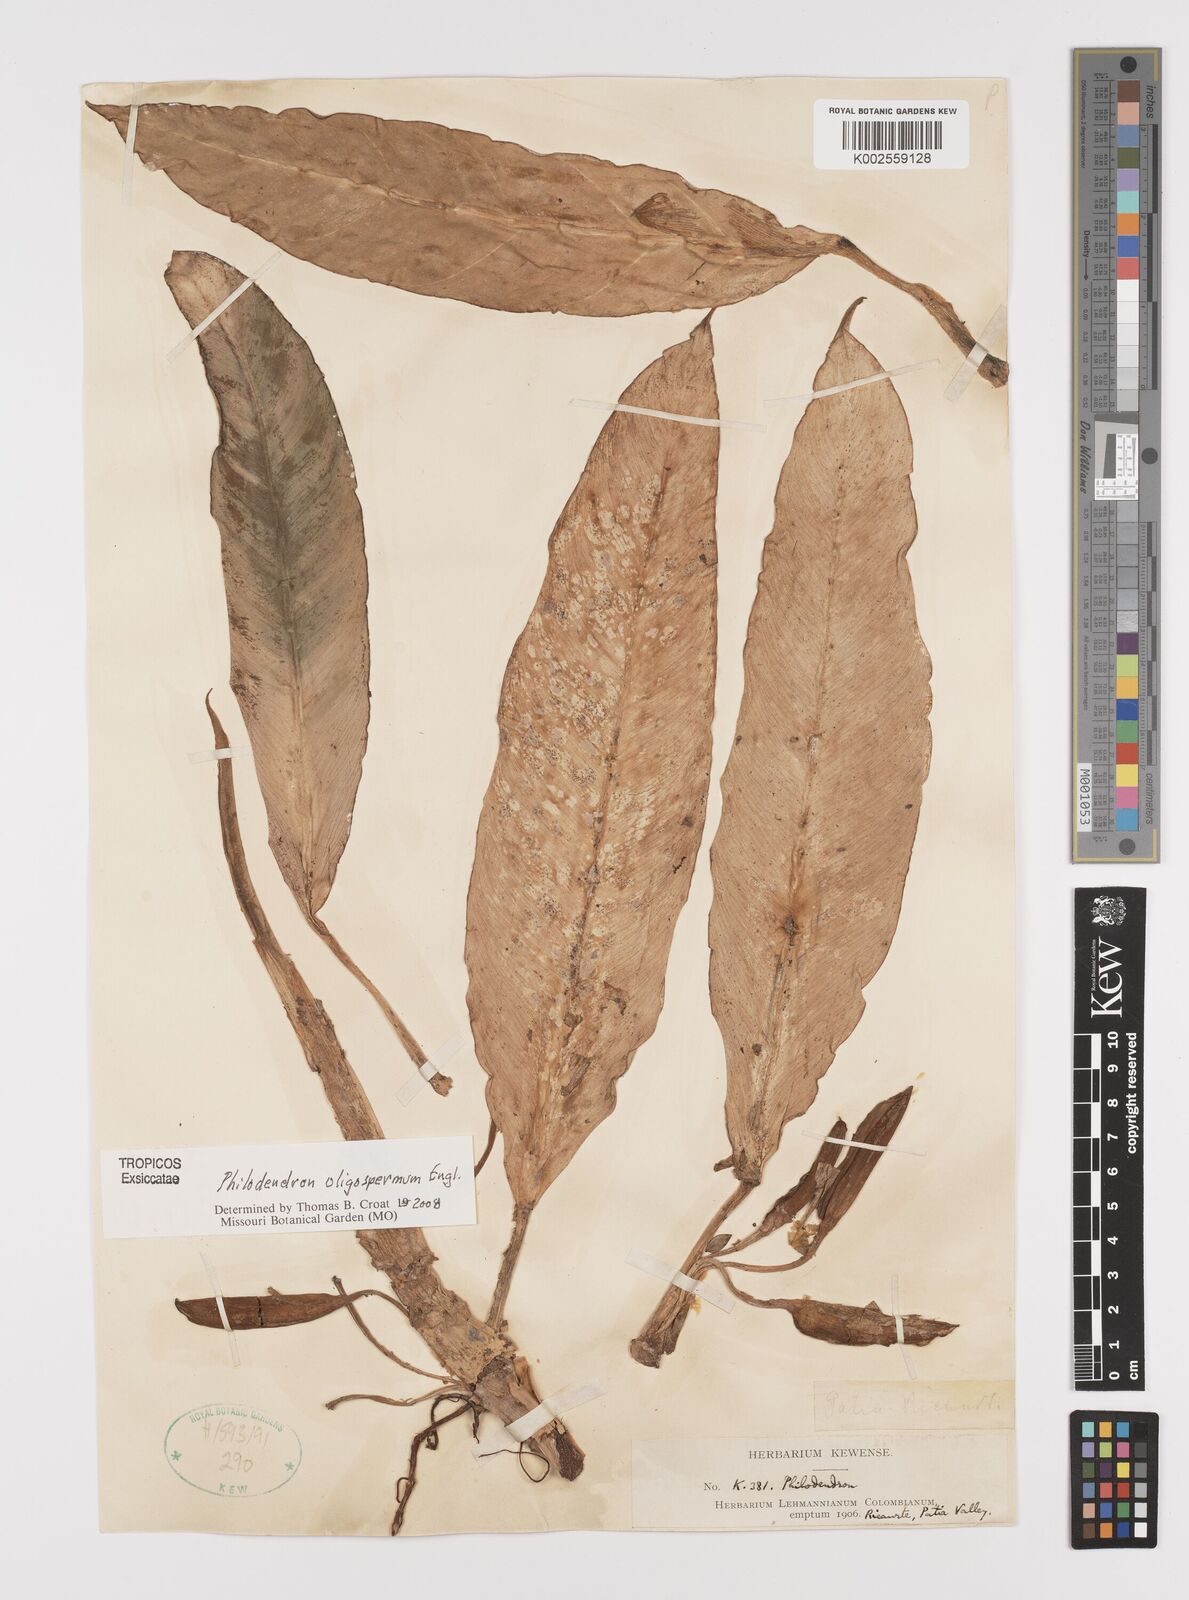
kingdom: Plantae
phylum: Tracheophyta
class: Liliopsida
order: Alismatales
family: Araceae
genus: Philodendron
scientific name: Philodendron oligospermum
